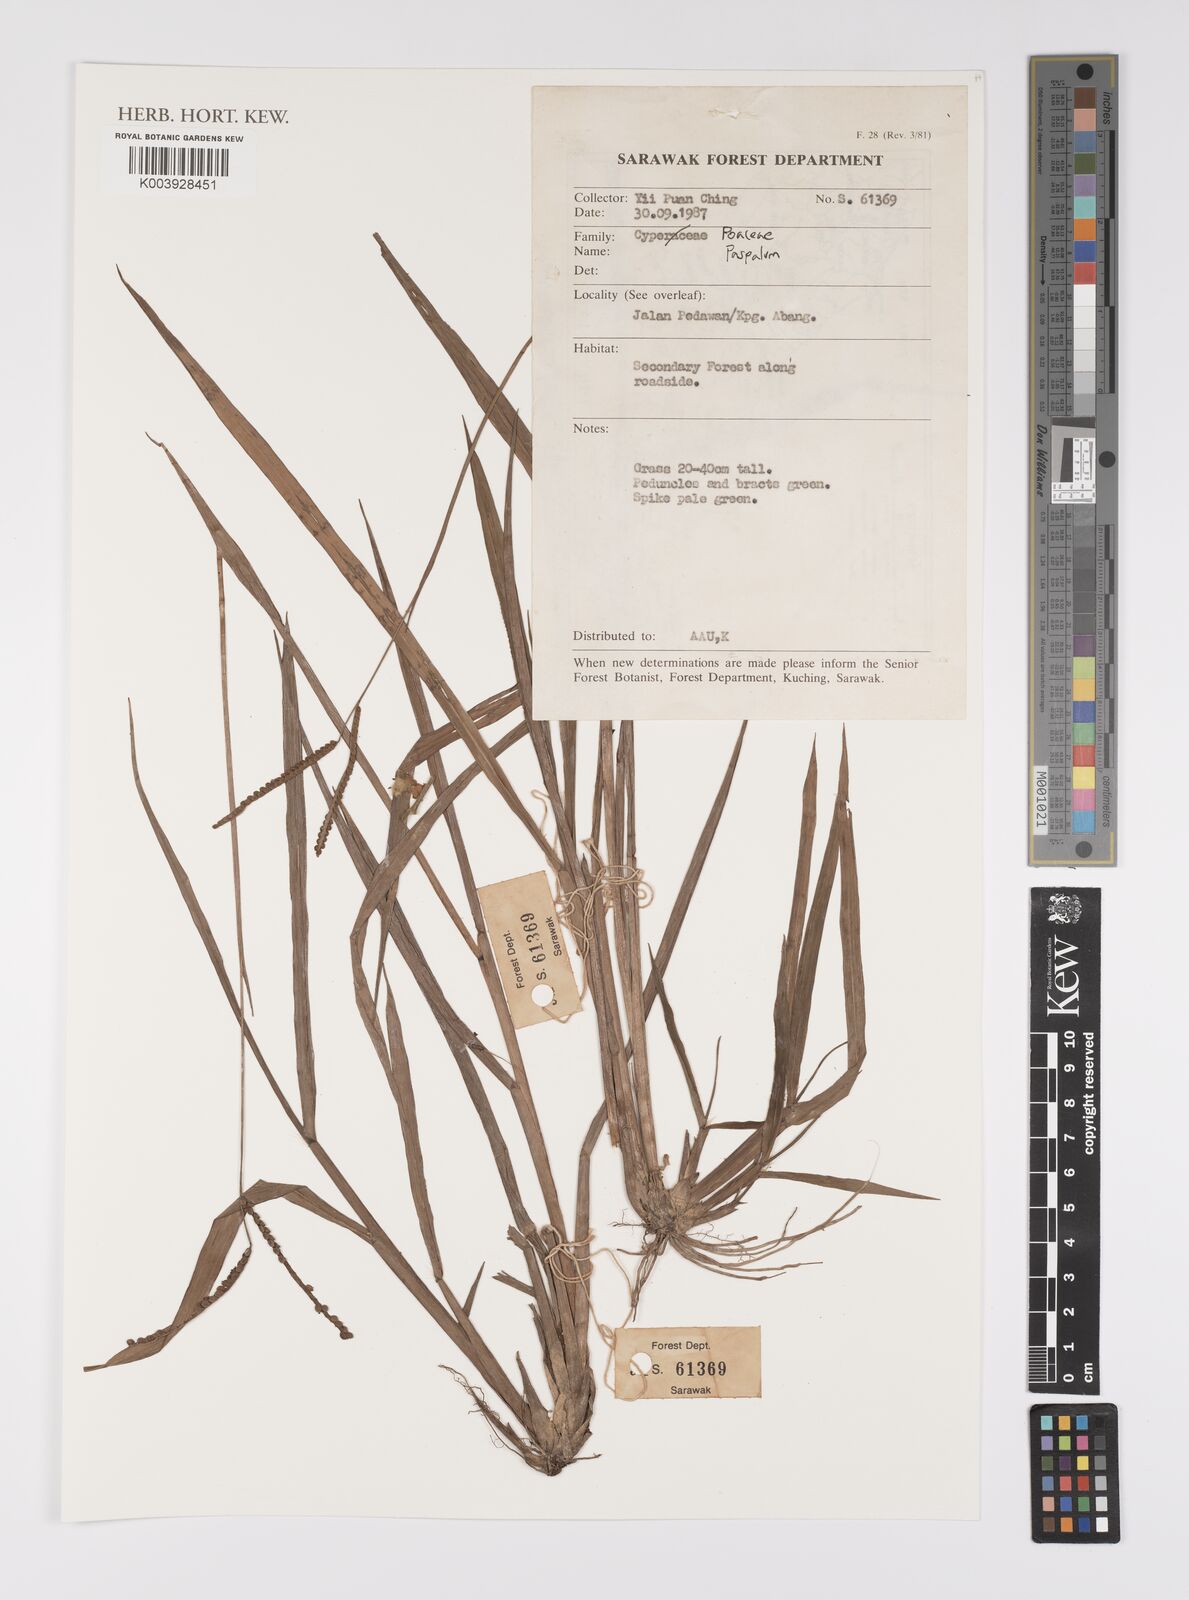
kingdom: Plantae
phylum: Tracheophyta
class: Liliopsida
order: Poales
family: Poaceae
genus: Paspalum
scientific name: Paspalum
